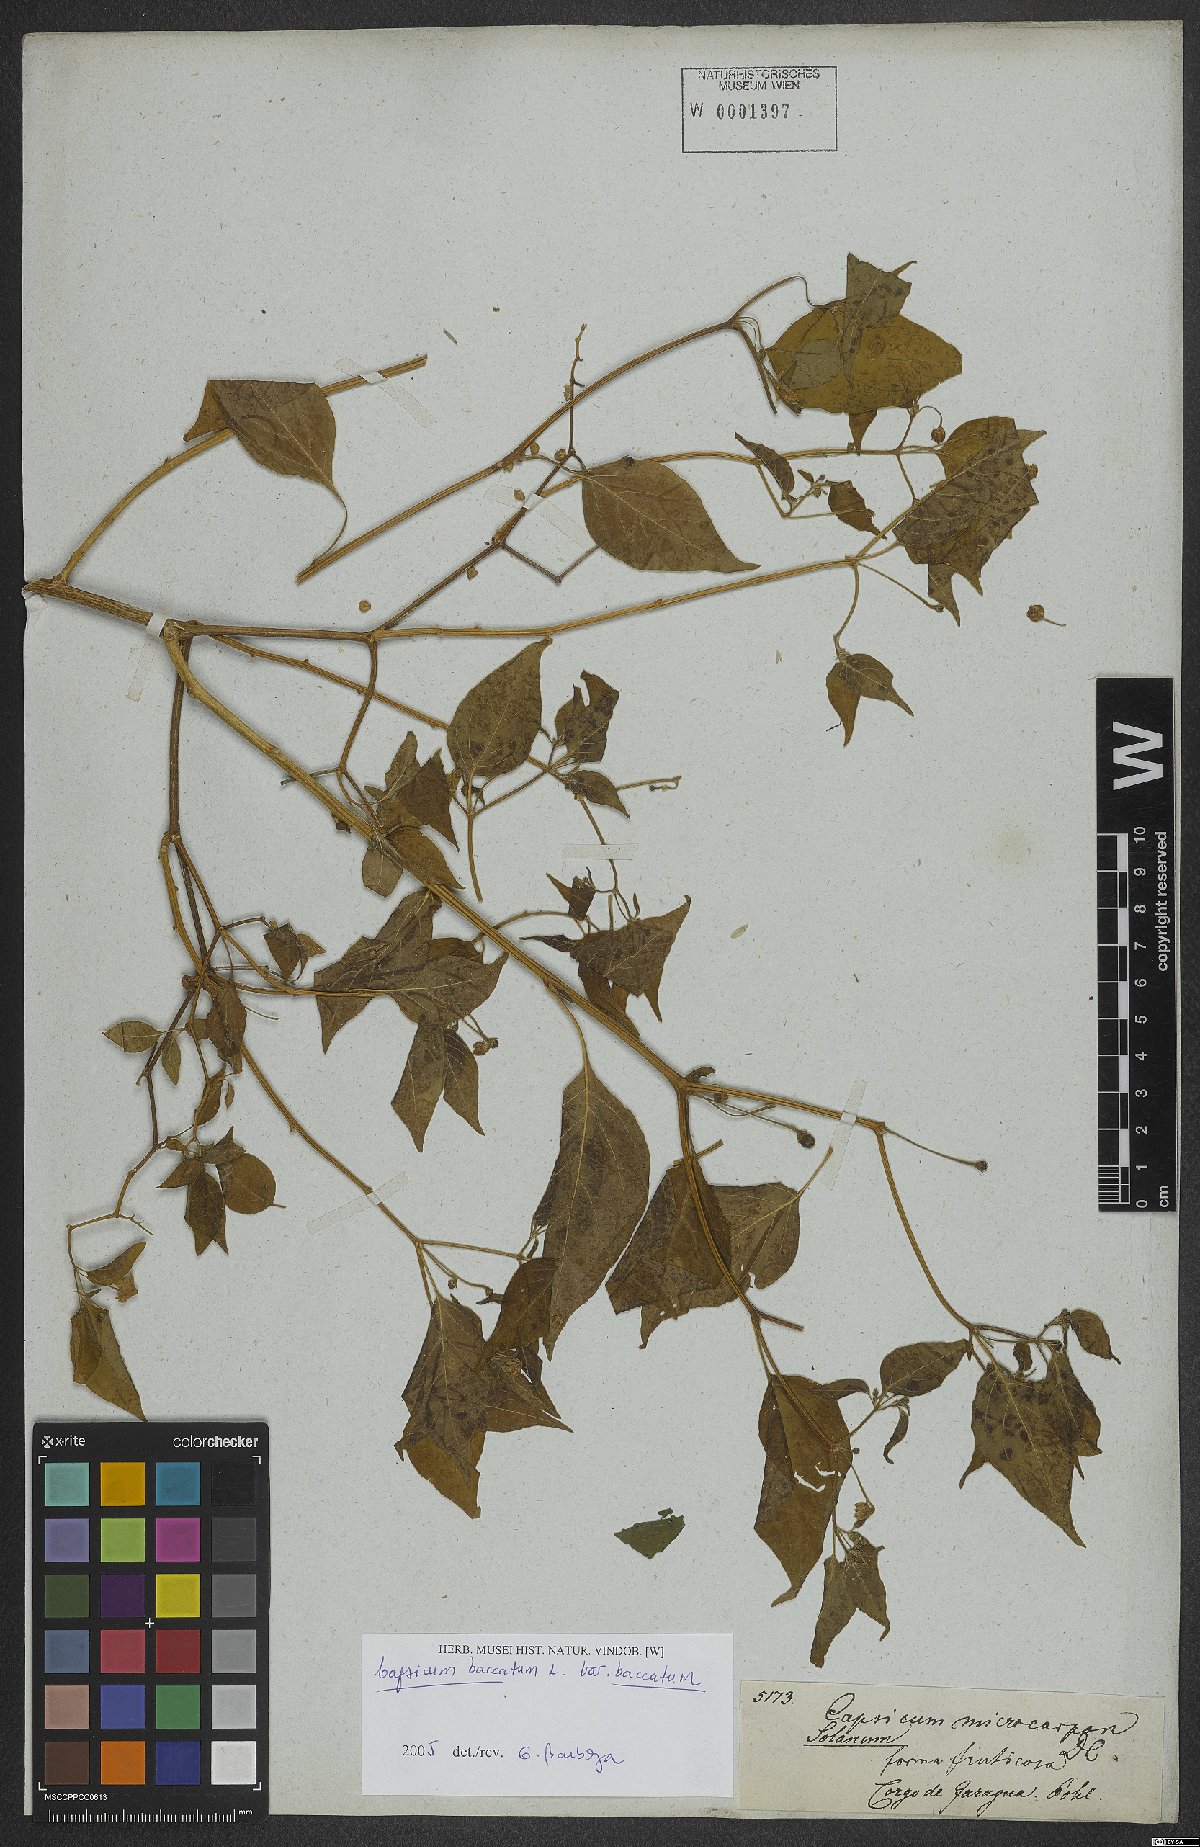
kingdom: Plantae
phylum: Tracheophyta
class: Magnoliopsida
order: Solanales
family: Solanaceae
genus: Capsicum
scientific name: Capsicum baccatum
